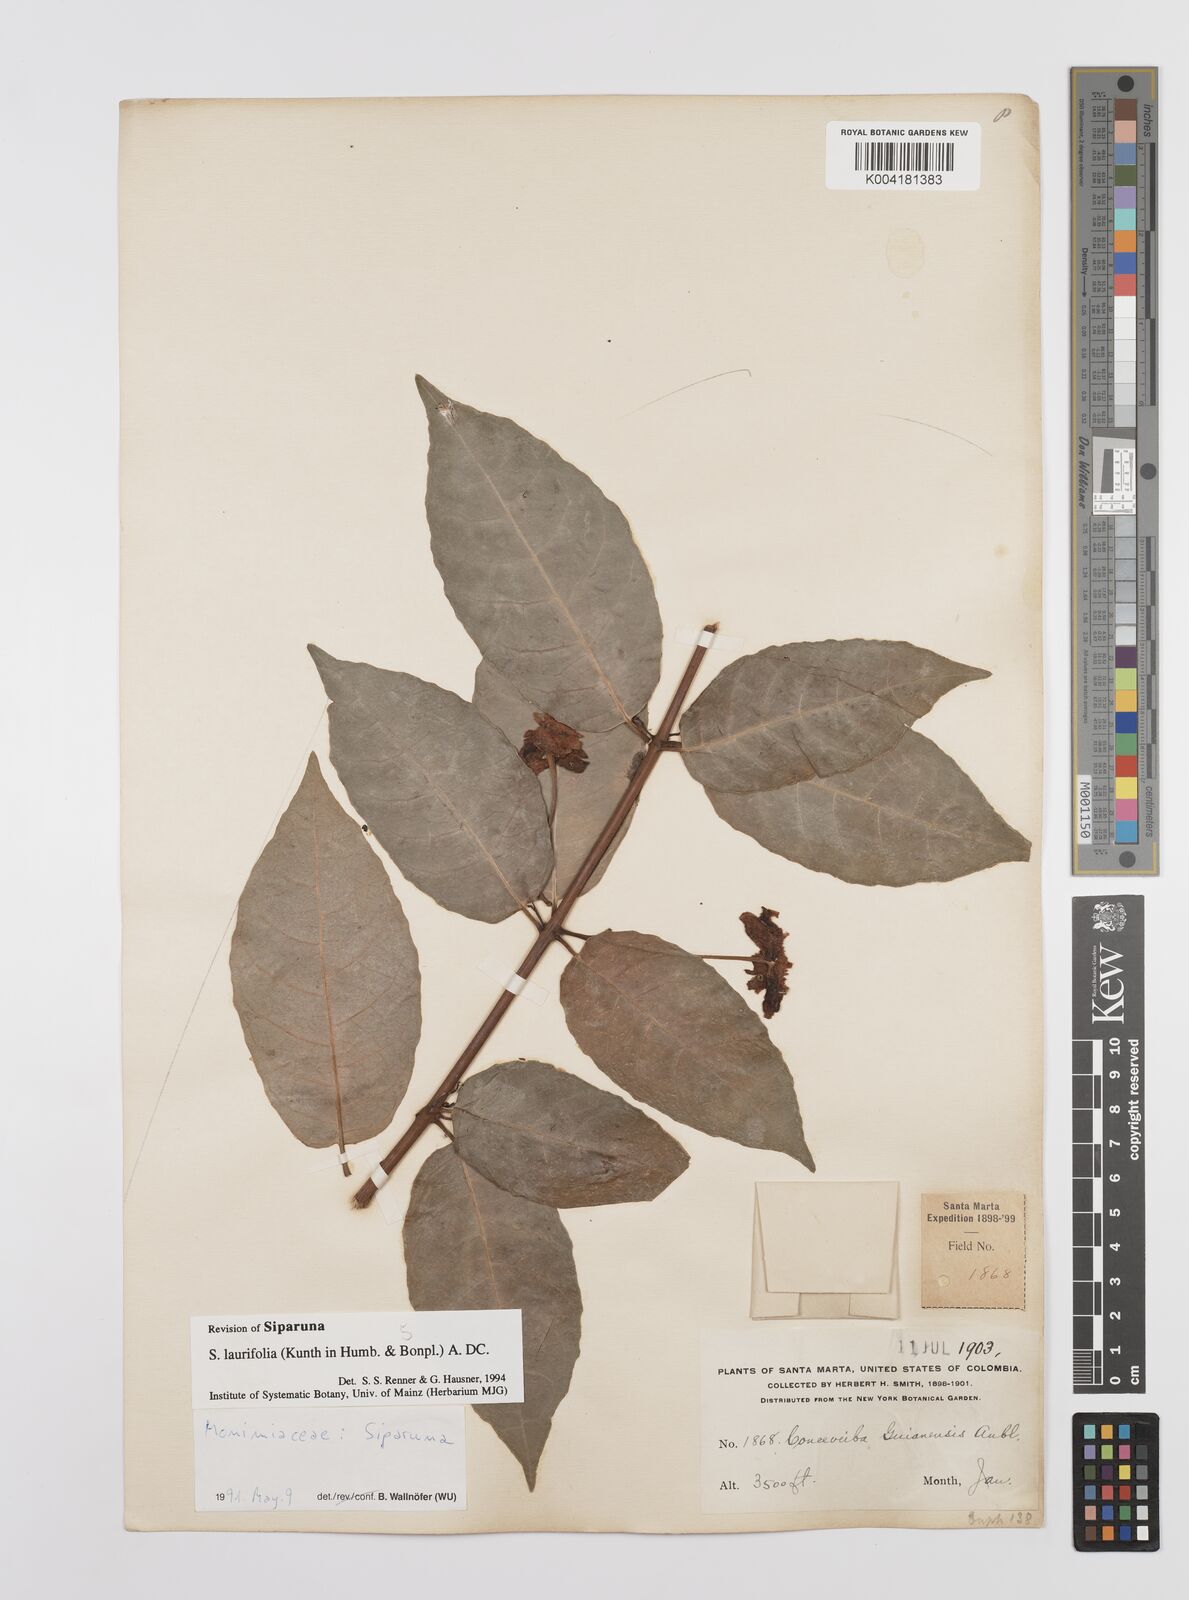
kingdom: Plantae
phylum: Tracheophyta
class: Magnoliopsida
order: Laurales
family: Siparunaceae
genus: Siparuna
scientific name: Siparuna laurifolia
